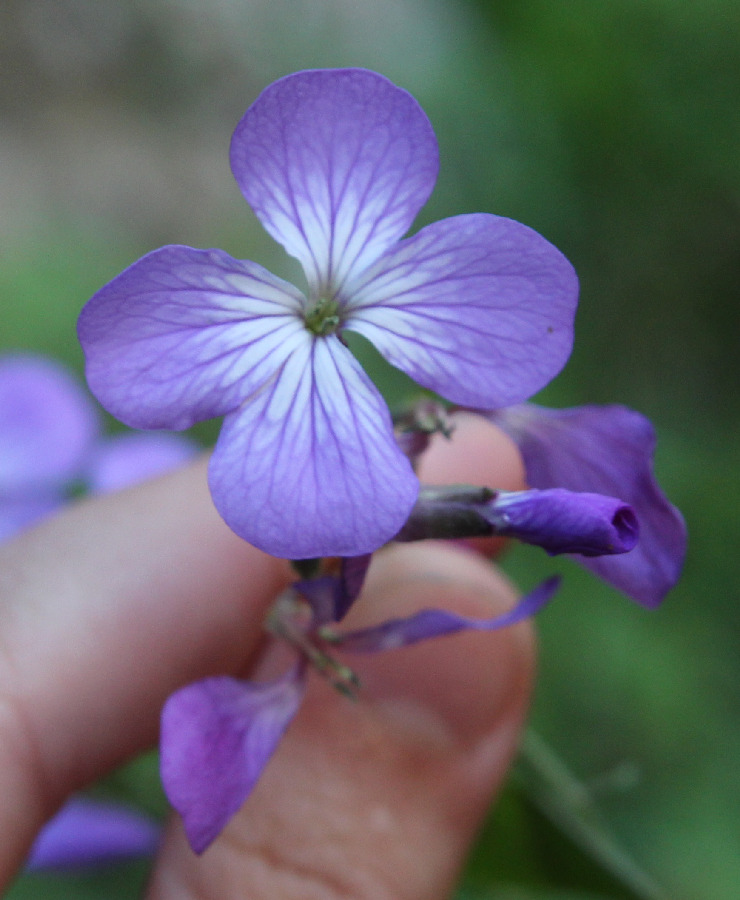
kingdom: Plantae
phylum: Tracheophyta
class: Magnoliopsida
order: Brassicales
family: Brassicaceae
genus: Lunaria
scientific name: Lunaria annua
